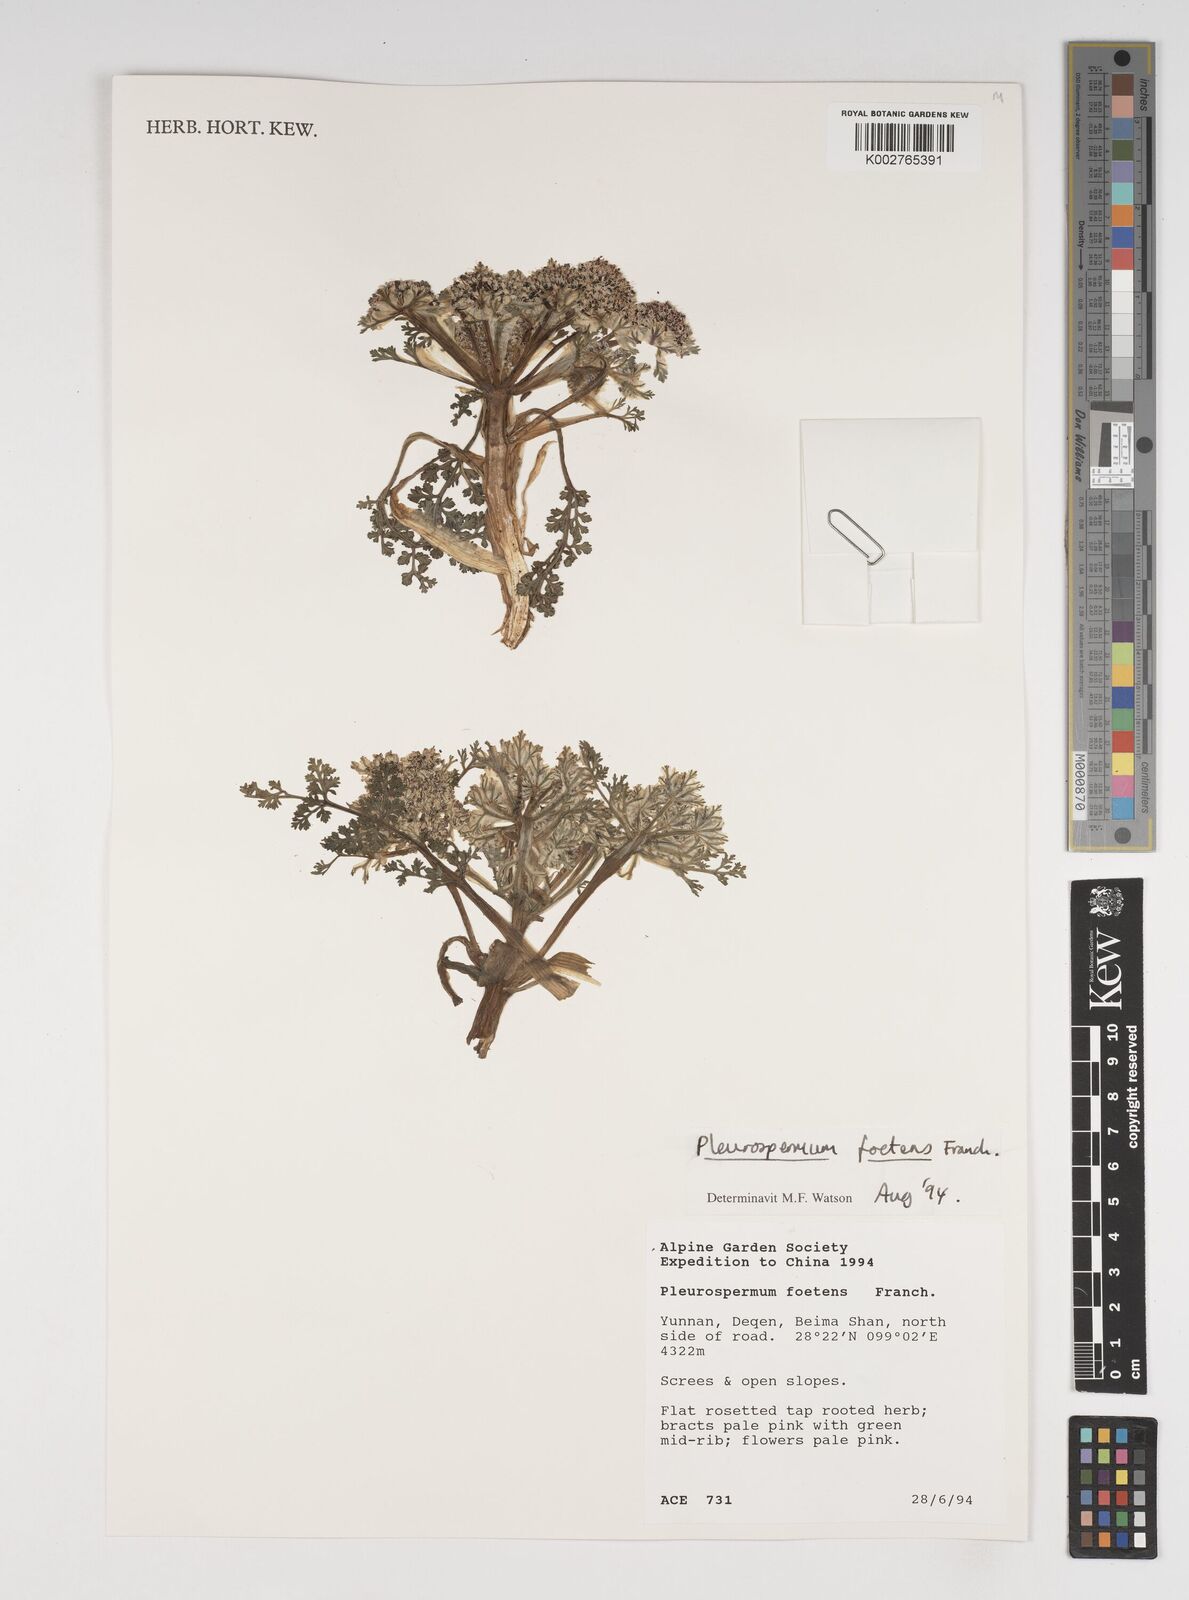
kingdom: Plantae
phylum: Tracheophyta
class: Magnoliopsida
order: Apiales
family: Apiaceae
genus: Hymenidium
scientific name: Hymenidium foetens
